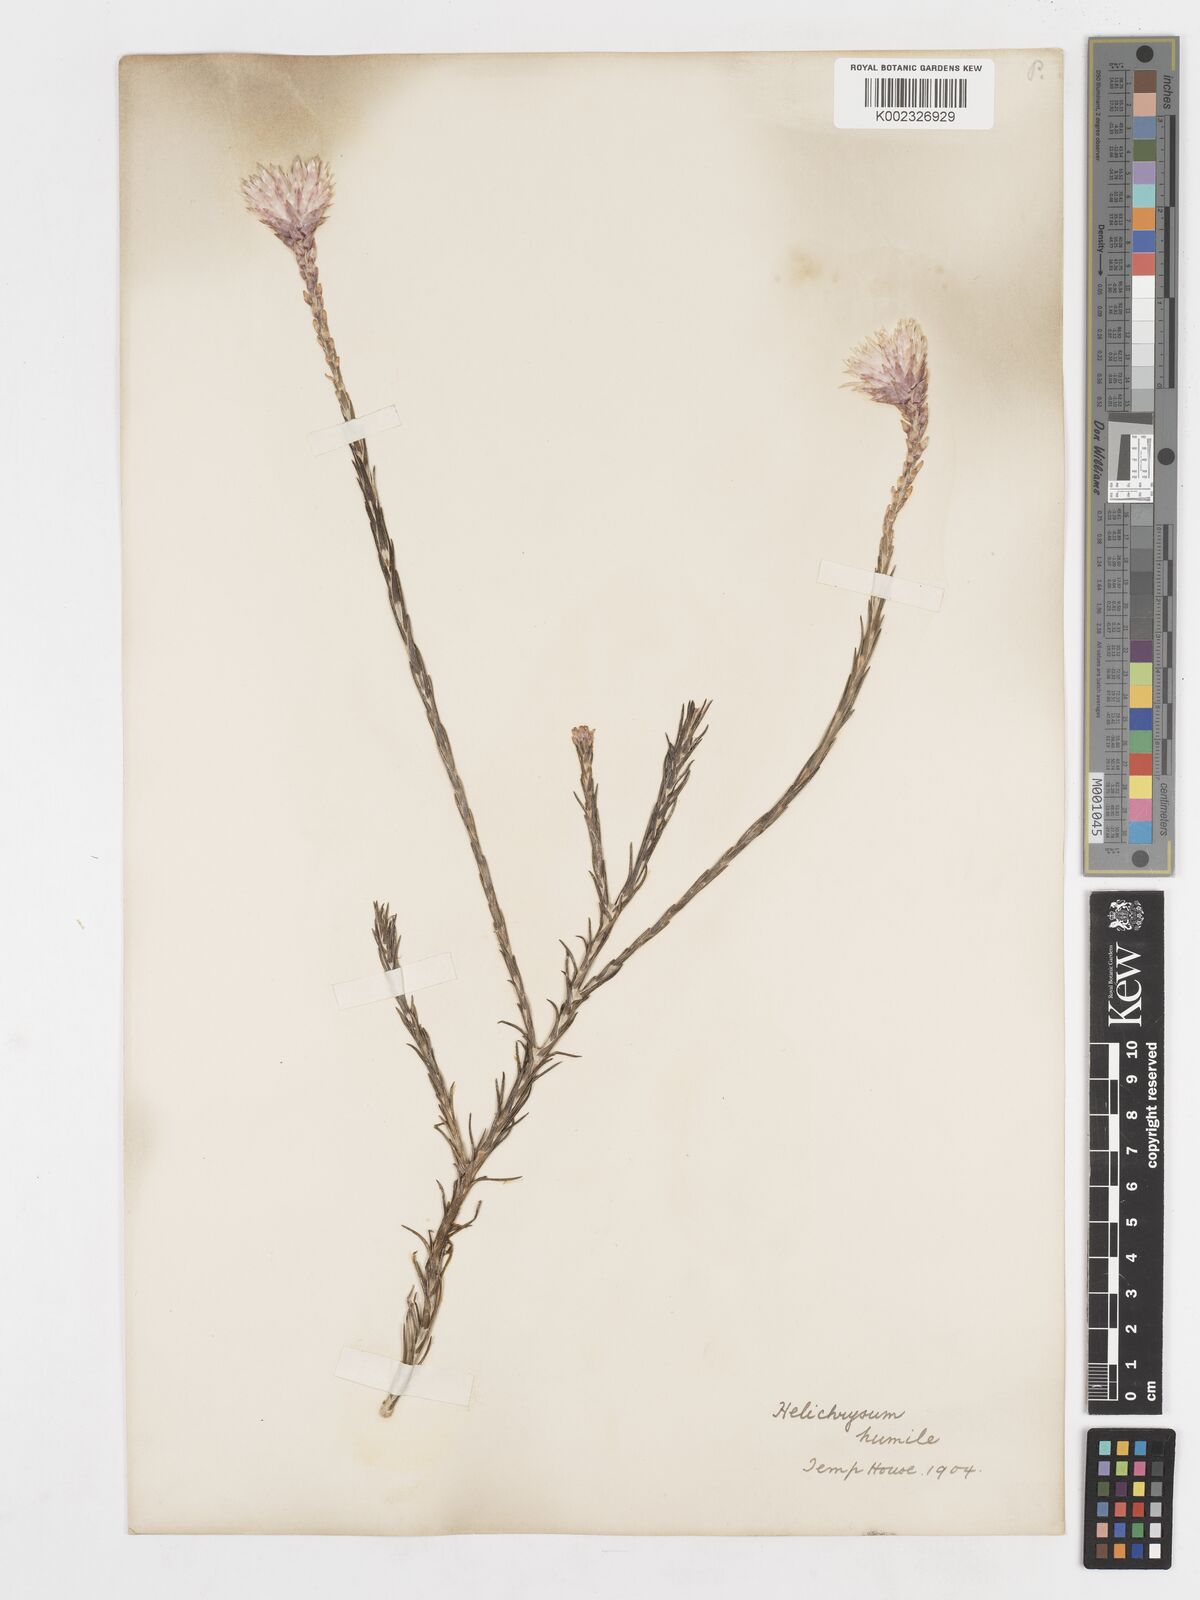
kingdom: Plantae
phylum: Tracheophyta
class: Magnoliopsida
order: Asterales
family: Asteraceae
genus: Edmondia
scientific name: Edmondia pinifolia
